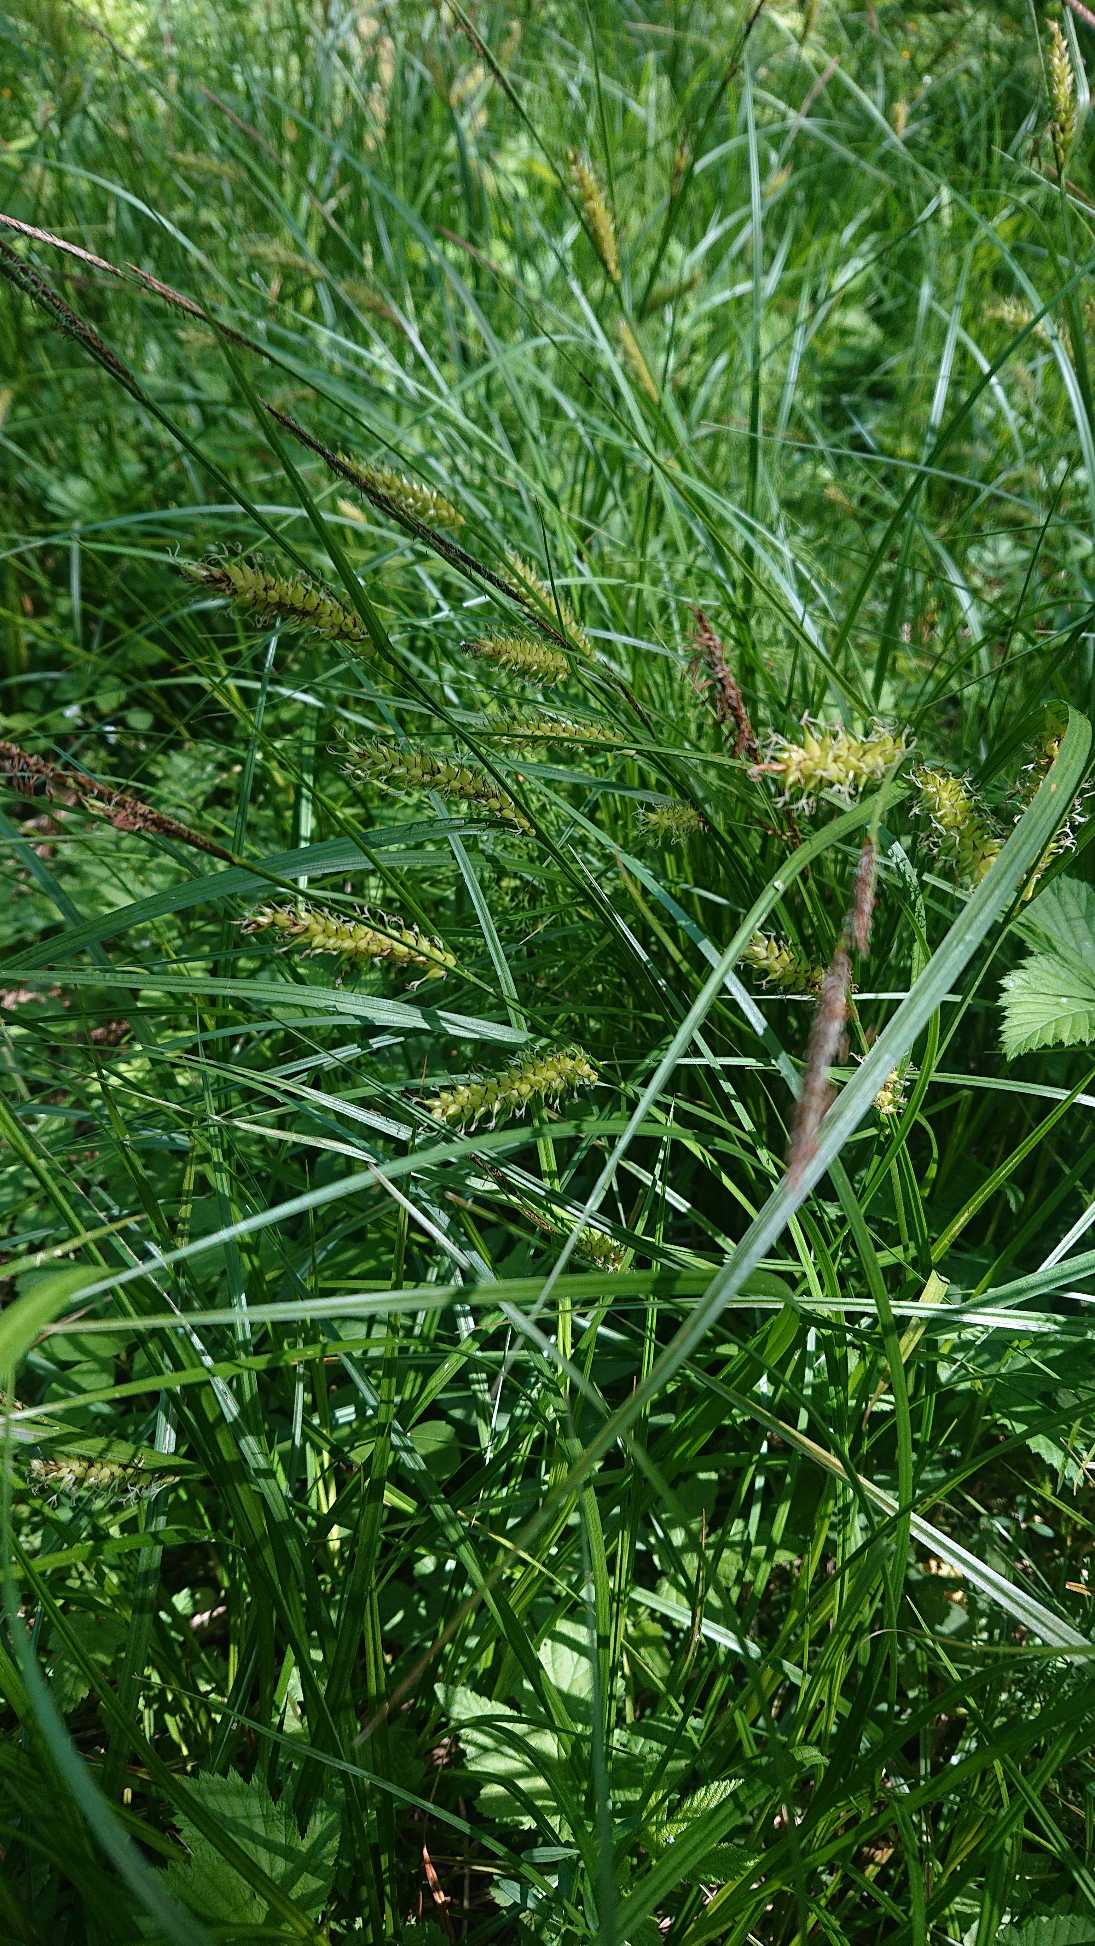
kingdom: Plantae
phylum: Tracheophyta
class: Liliopsida
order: Poales
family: Cyperaceae
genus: Carex
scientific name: Carex vesicaria
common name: Blære-star
